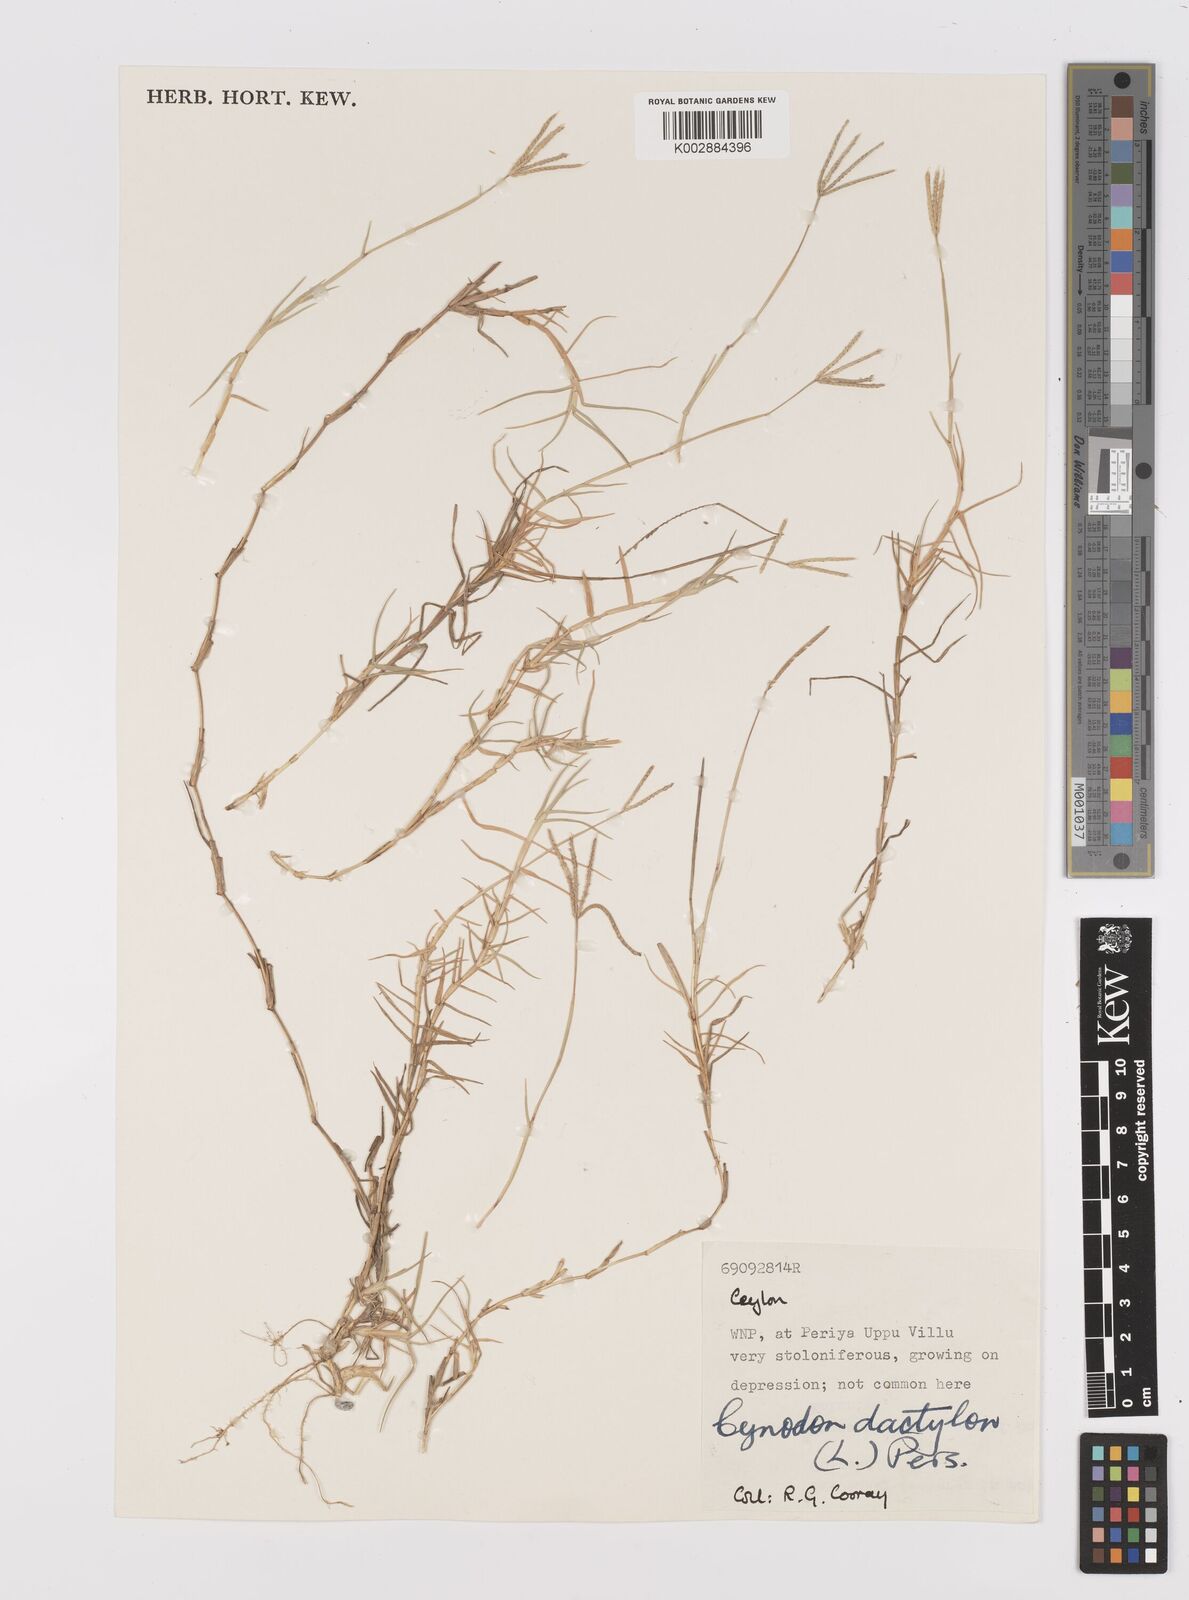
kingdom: Plantae
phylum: Tracheophyta
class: Liliopsida
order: Poales
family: Poaceae
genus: Cynodon
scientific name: Cynodon dactylon
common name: Bermuda grass
